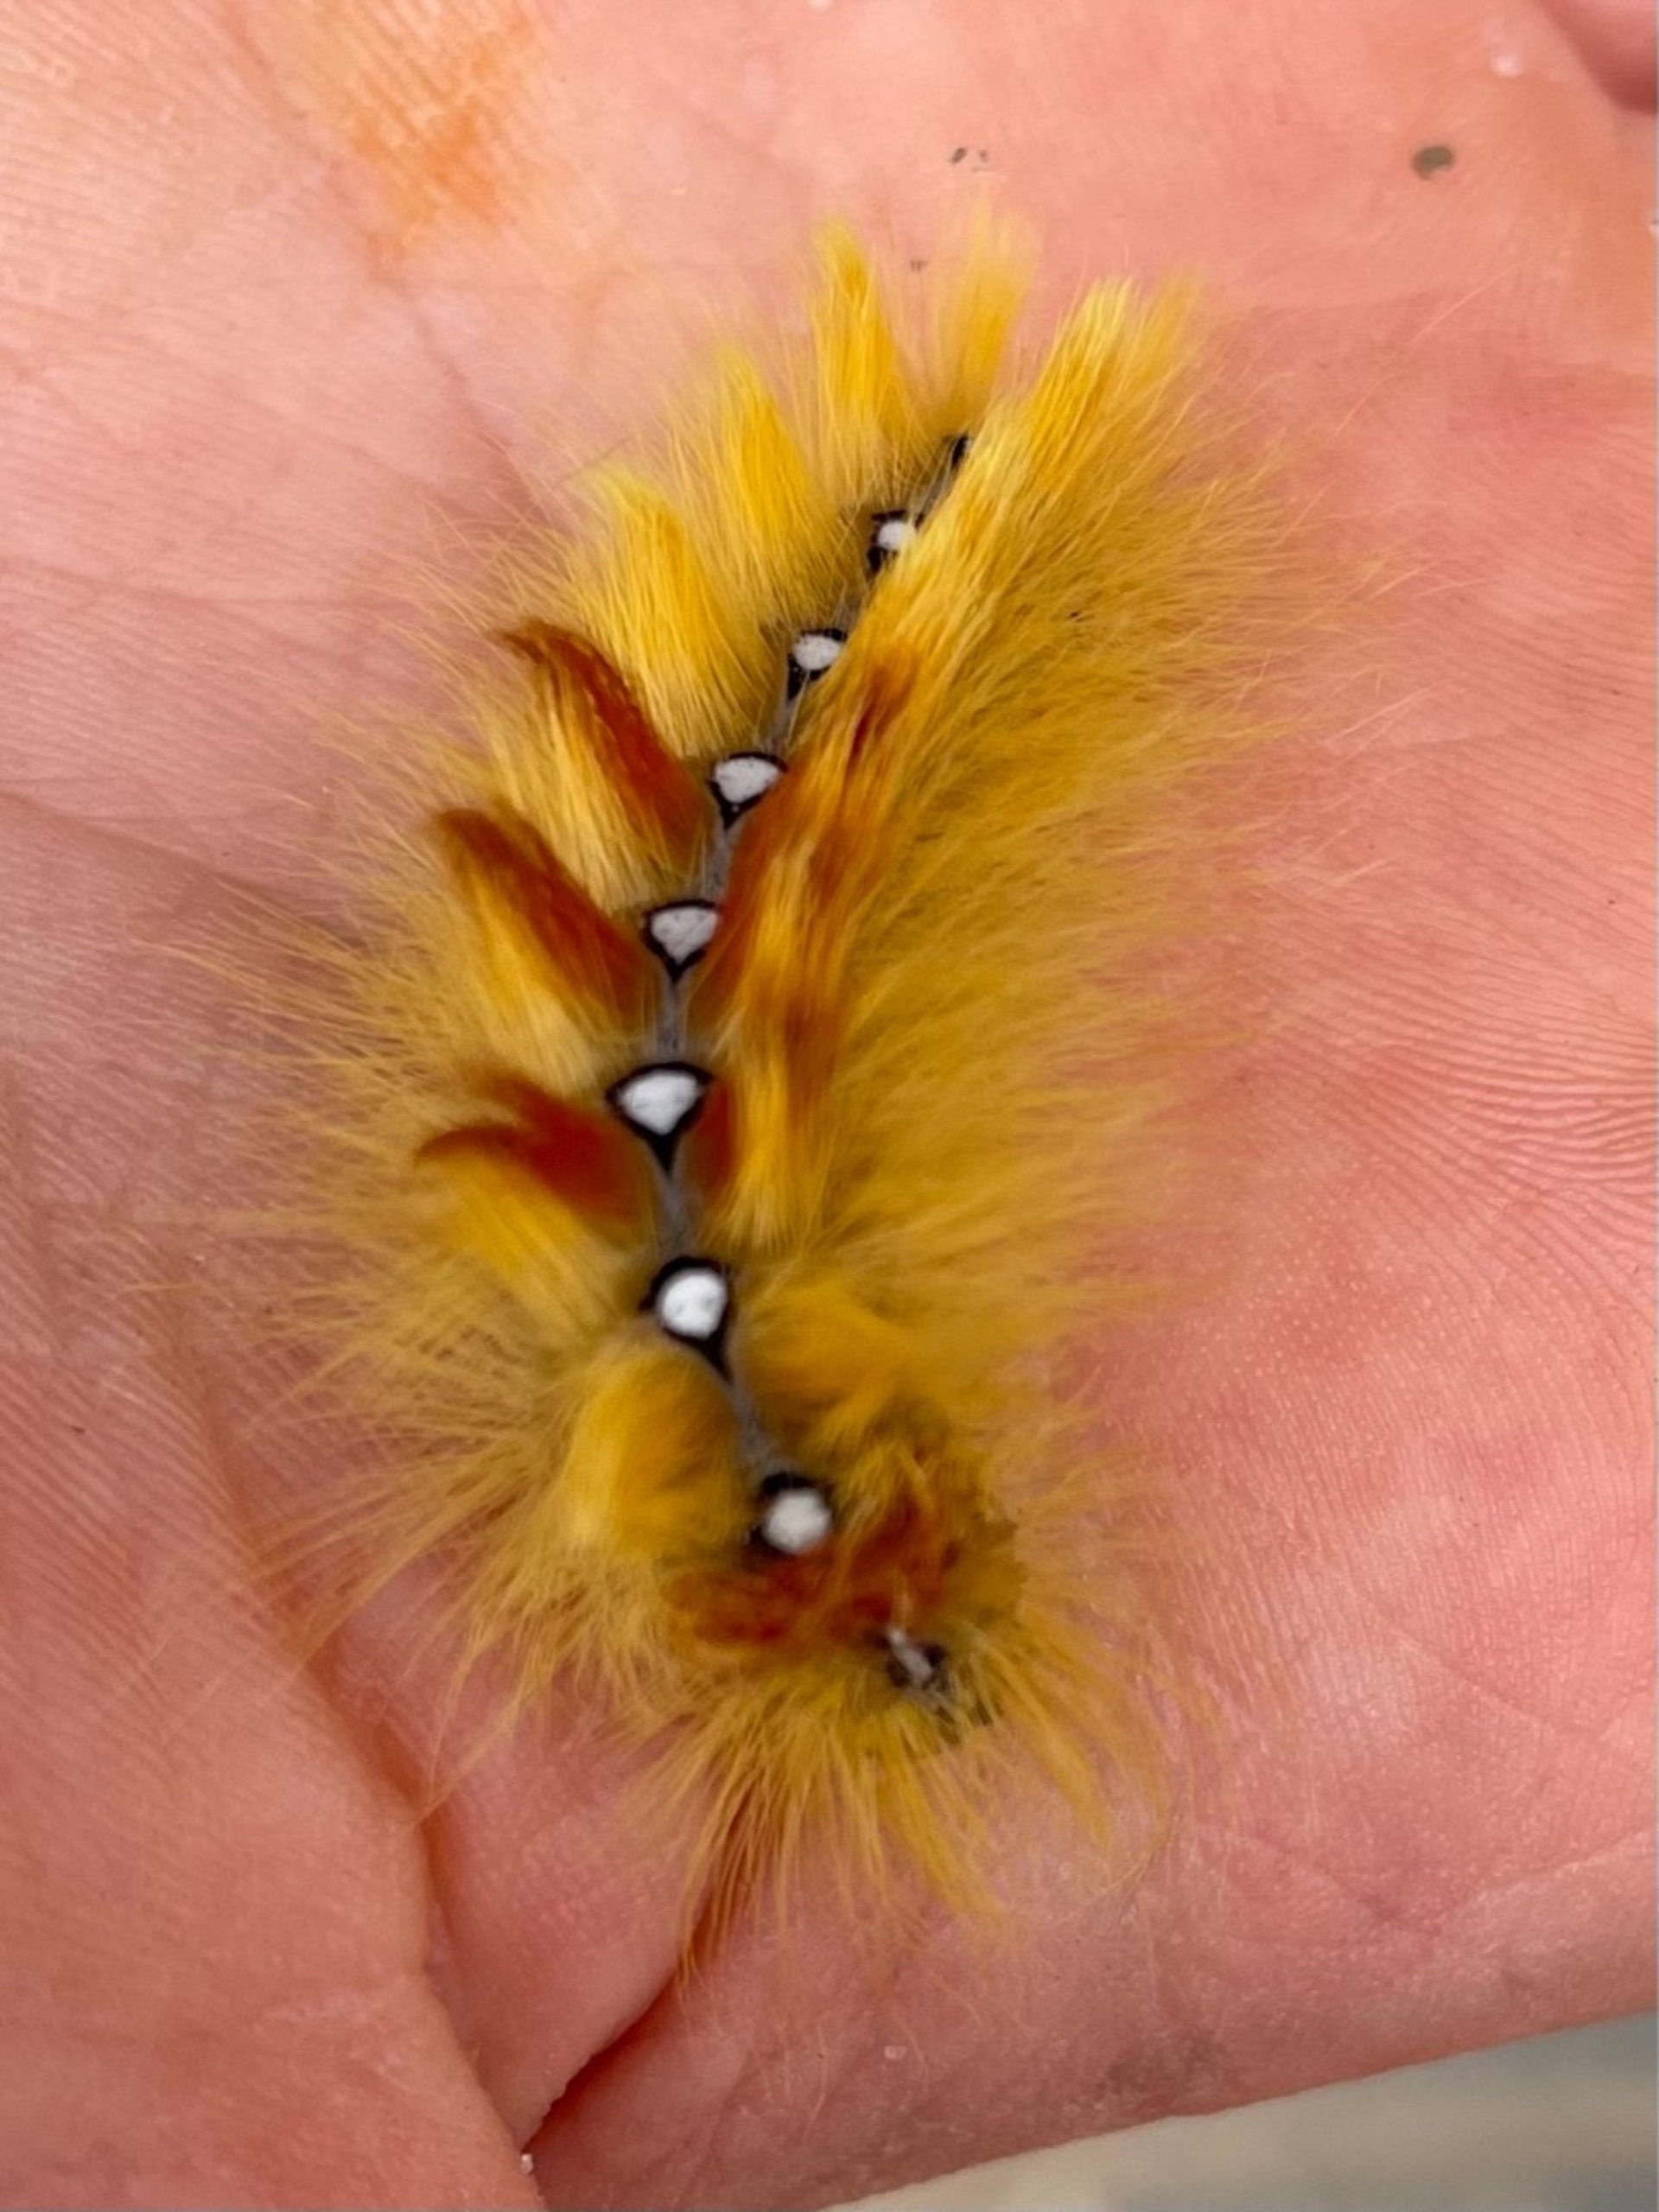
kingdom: Animalia
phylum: Arthropoda
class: Insecta
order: Lepidoptera
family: Noctuidae
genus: Acronicta
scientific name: Acronicta aceris
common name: Ahornugle
